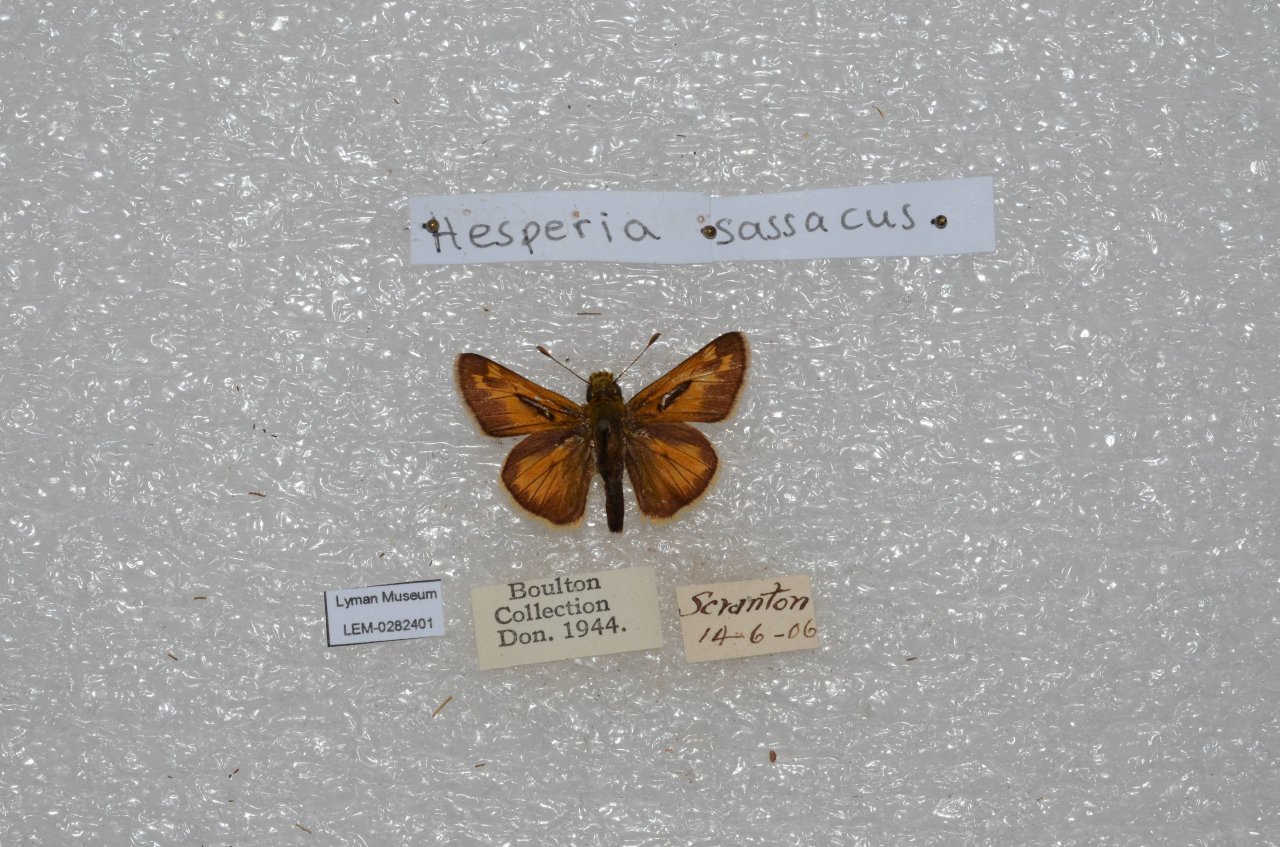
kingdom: Animalia
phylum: Arthropoda
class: Insecta
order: Lepidoptera
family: Hesperiidae
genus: Hesperia
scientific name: Hesperia sassacus
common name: Sassacus Skipper
